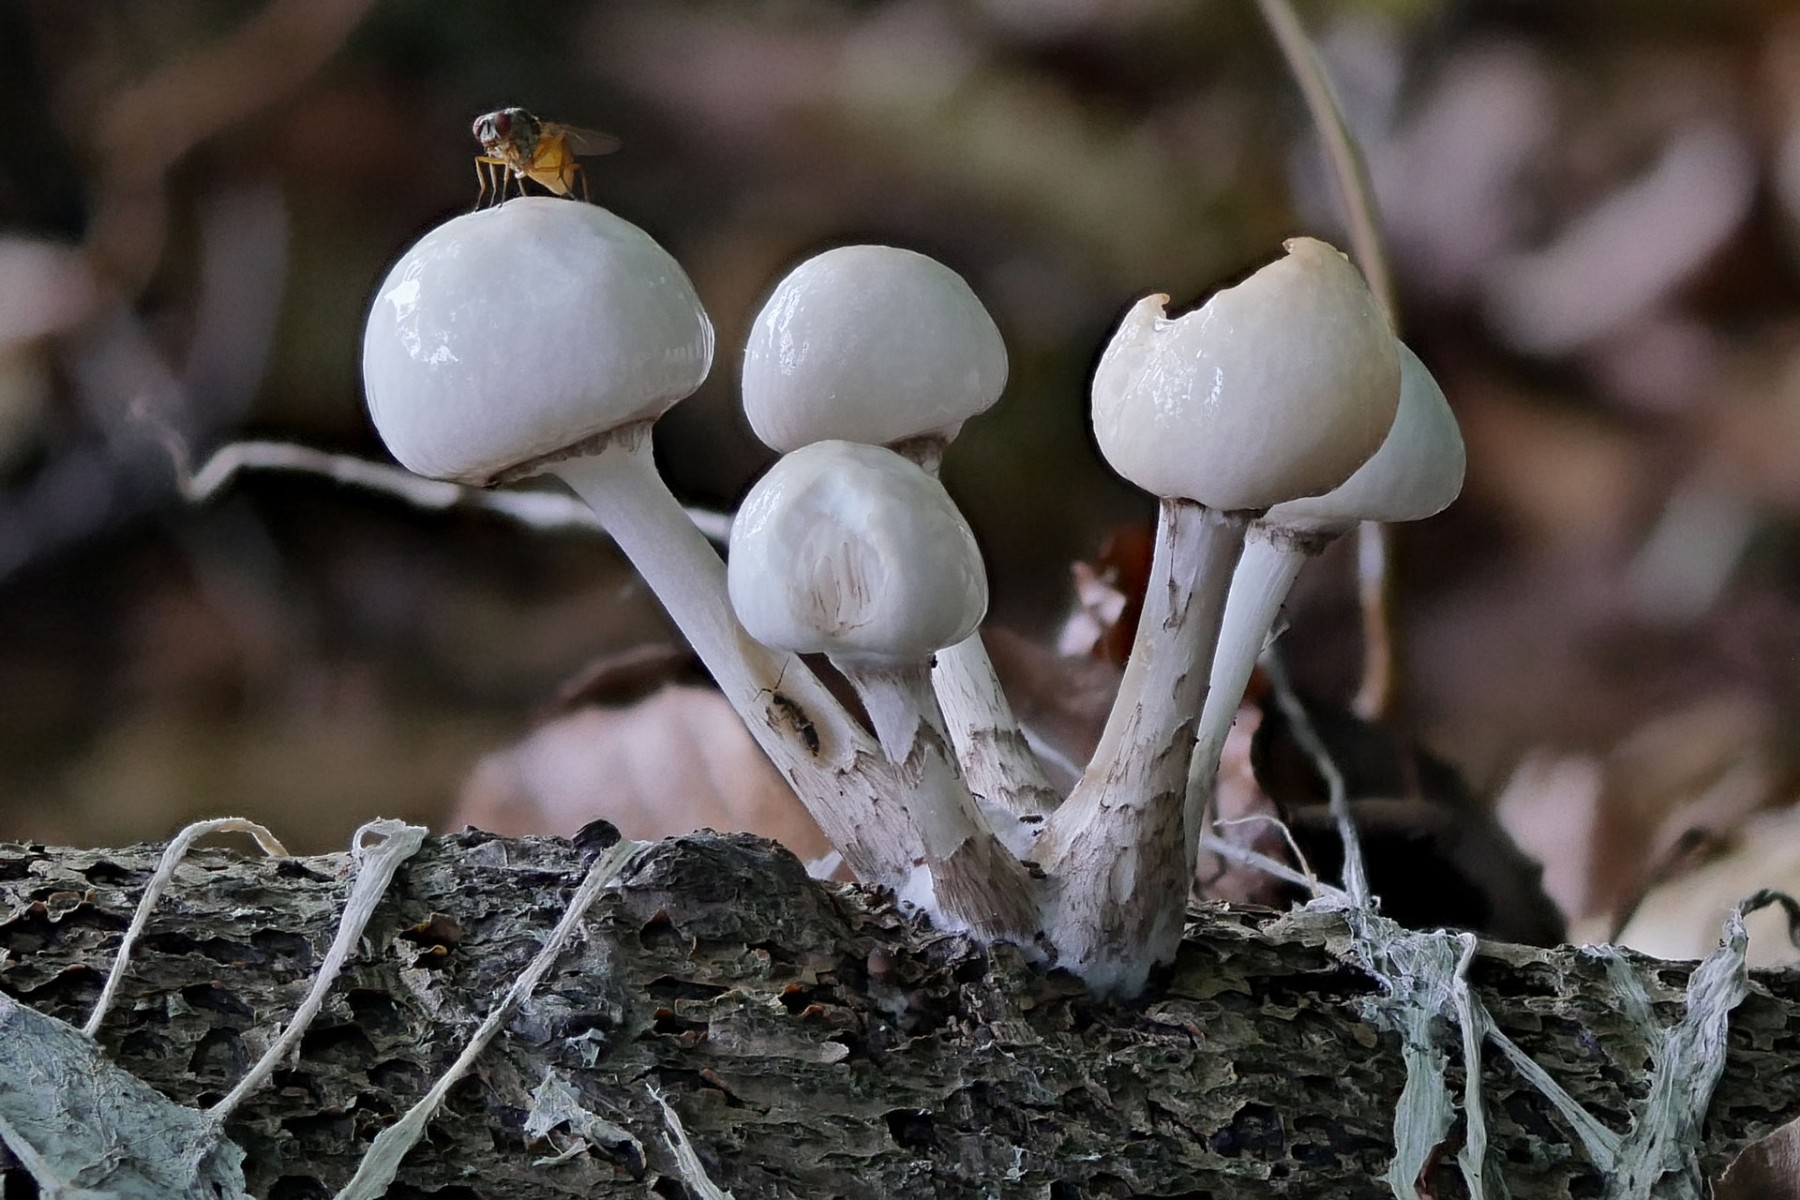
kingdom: Fungi
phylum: Basidiomycota
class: Agaricomycetes
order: Agaricales
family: Physalacriaceae
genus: Mucidula
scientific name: Mucidula mucida
